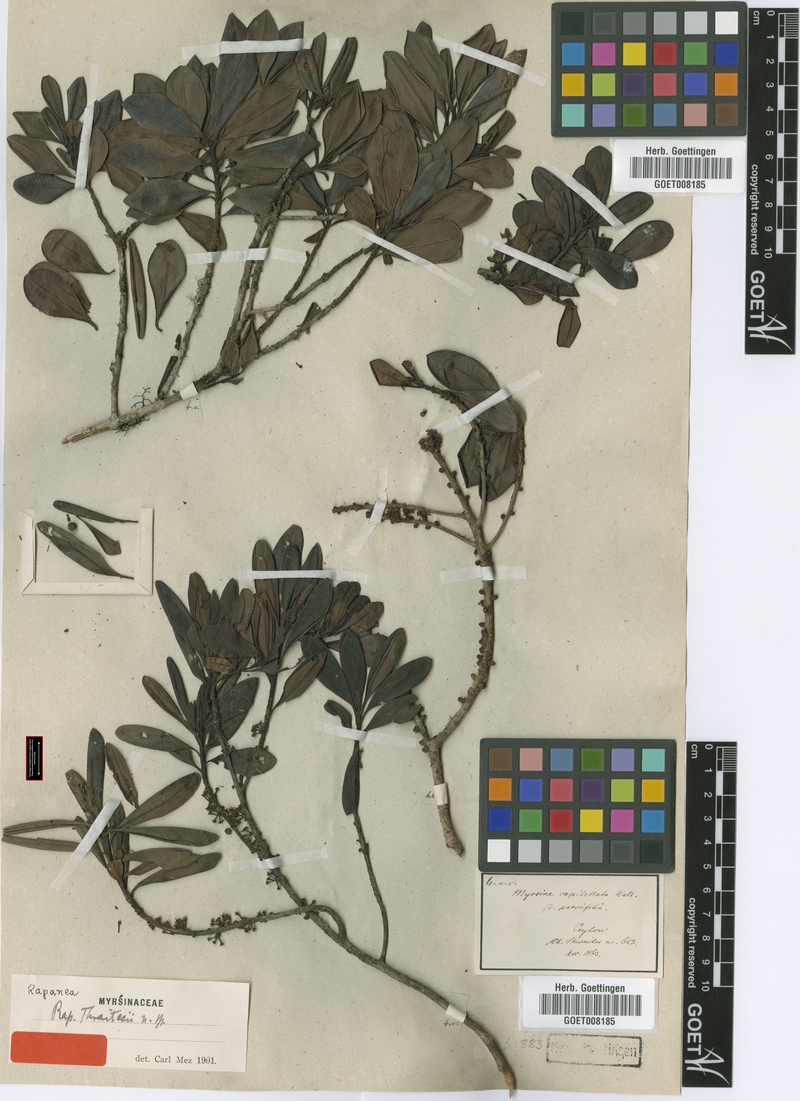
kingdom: Plantae
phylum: Tracheophyta
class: Magnoliopsida
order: Ericales
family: Primulaceae
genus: Myrsine
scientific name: Myrsine thwaitesii
